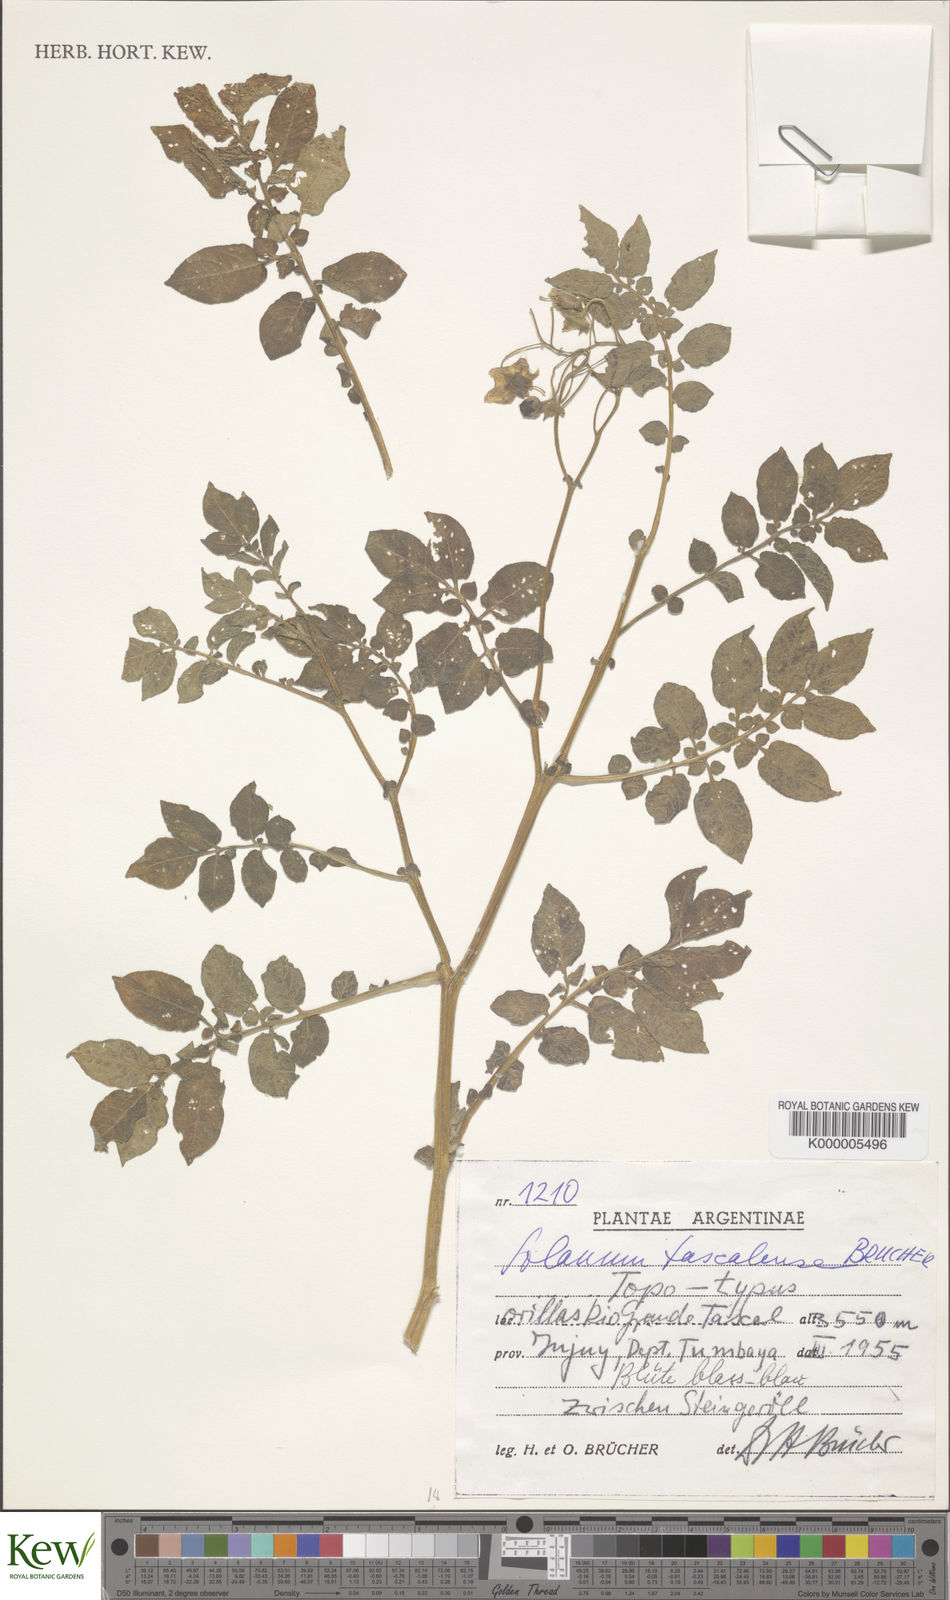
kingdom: Plantae
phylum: Tracheophyta
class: Magnoliopsida
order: Solanales
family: Solanaceae
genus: Solanum
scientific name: Solanum
